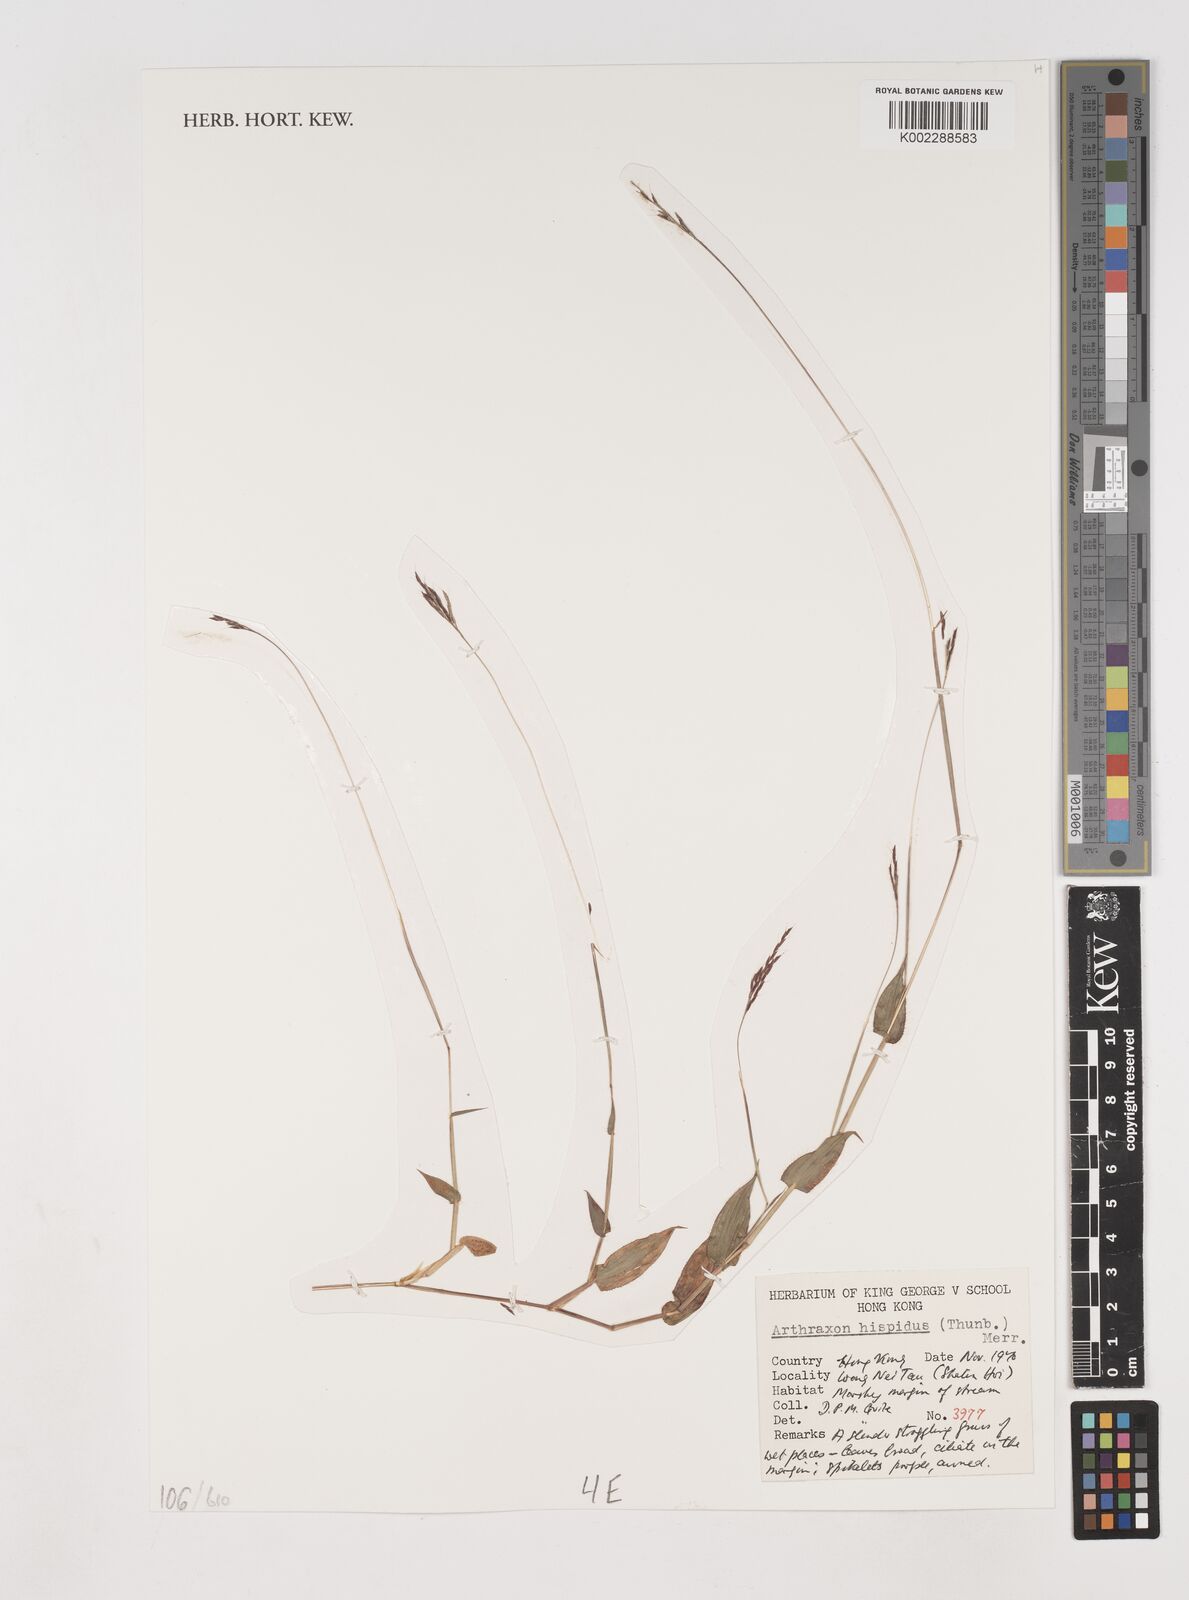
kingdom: Plantae
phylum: Tracheophyta
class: Liliopsida
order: Poales
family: Poaceae
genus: Arthraxon
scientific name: Arthraxon hispidus
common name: Small carpgrass
